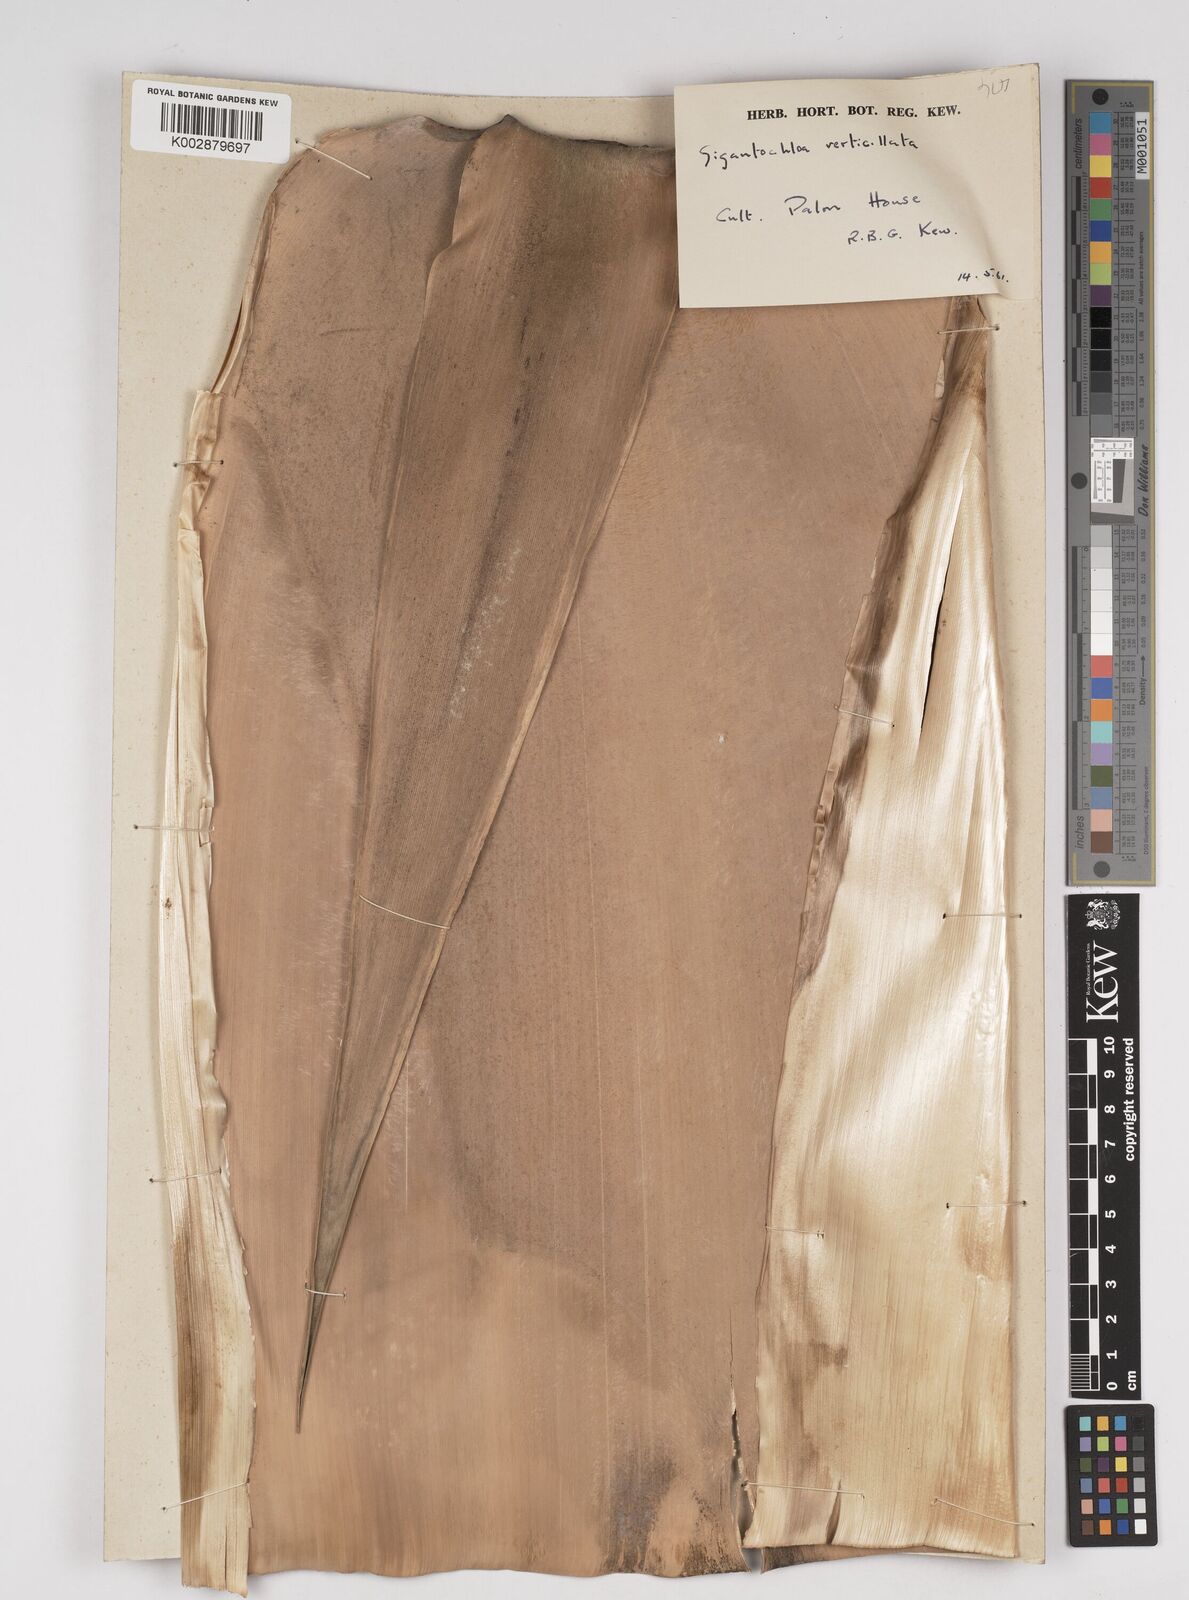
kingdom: Plantae
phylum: Tracheophyta
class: Liliopsida
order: Poales
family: Poaceae
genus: Gigantochloa
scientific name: Gigantochloa verticillata
